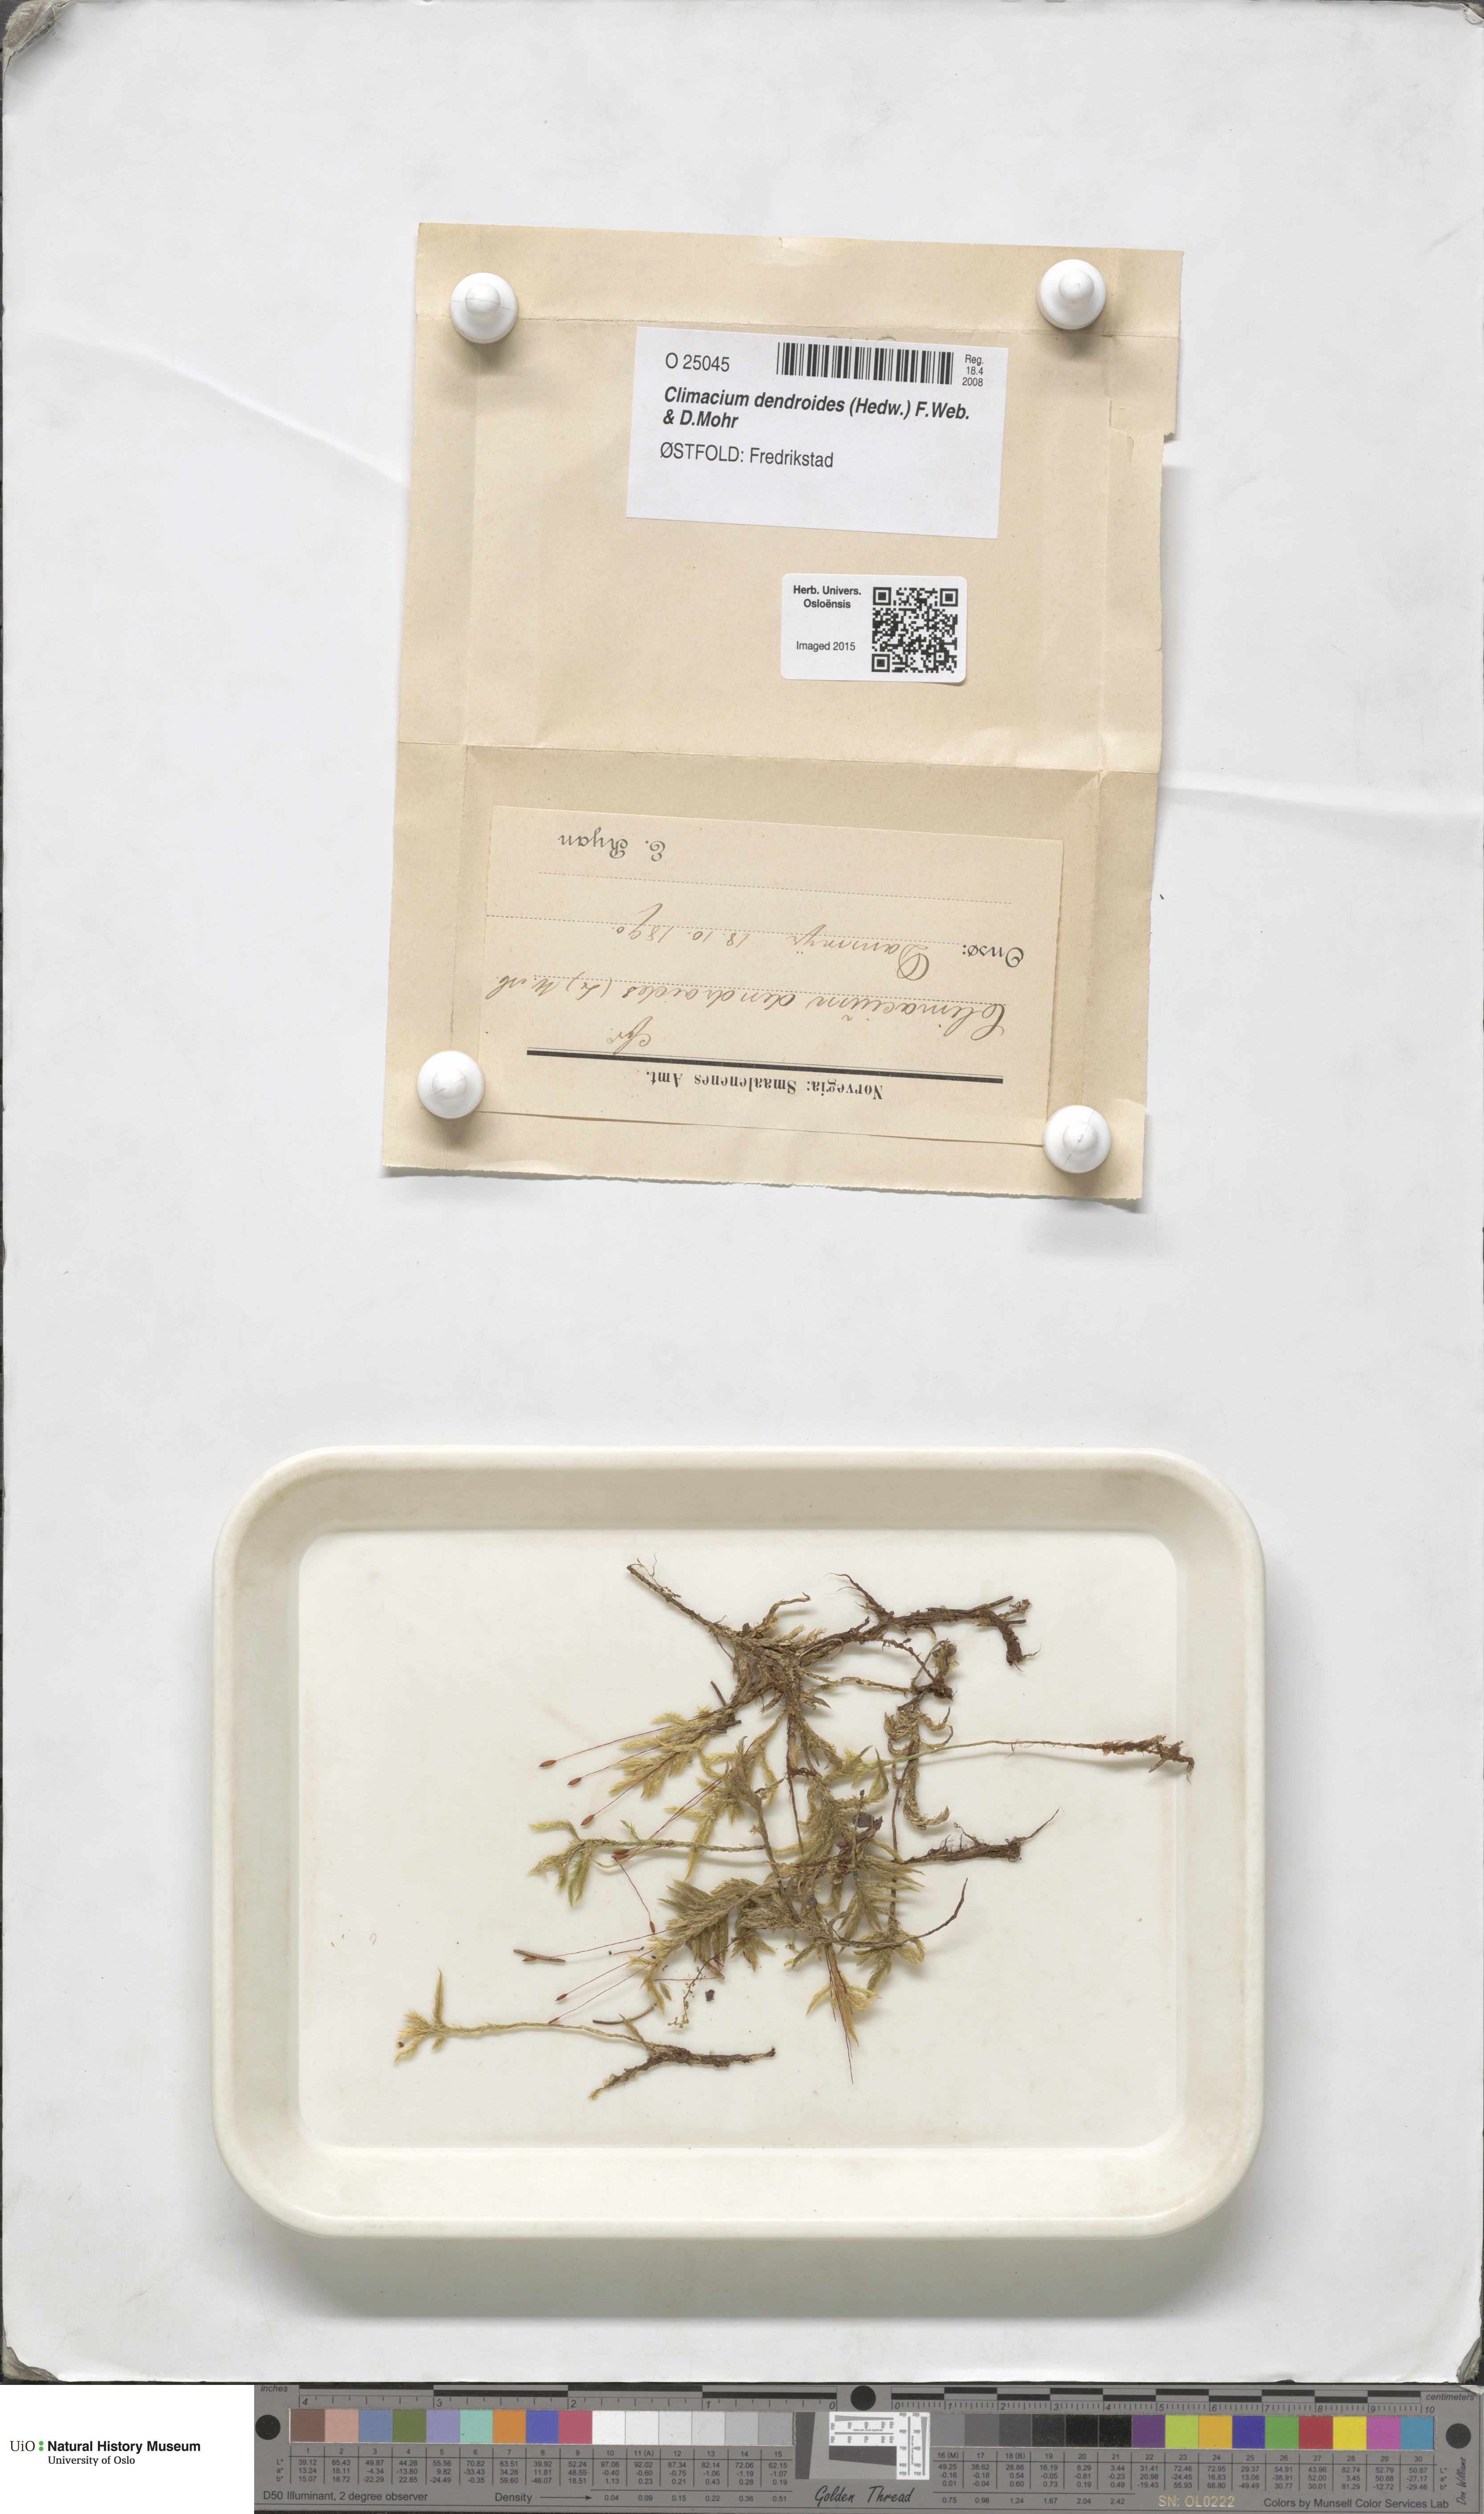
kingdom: Plantae
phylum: Bryophyta
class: Bryopsida
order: Hypnales
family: Climaciaceae
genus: Climacium
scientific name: Climacium dendroides
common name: Northern tree moss
